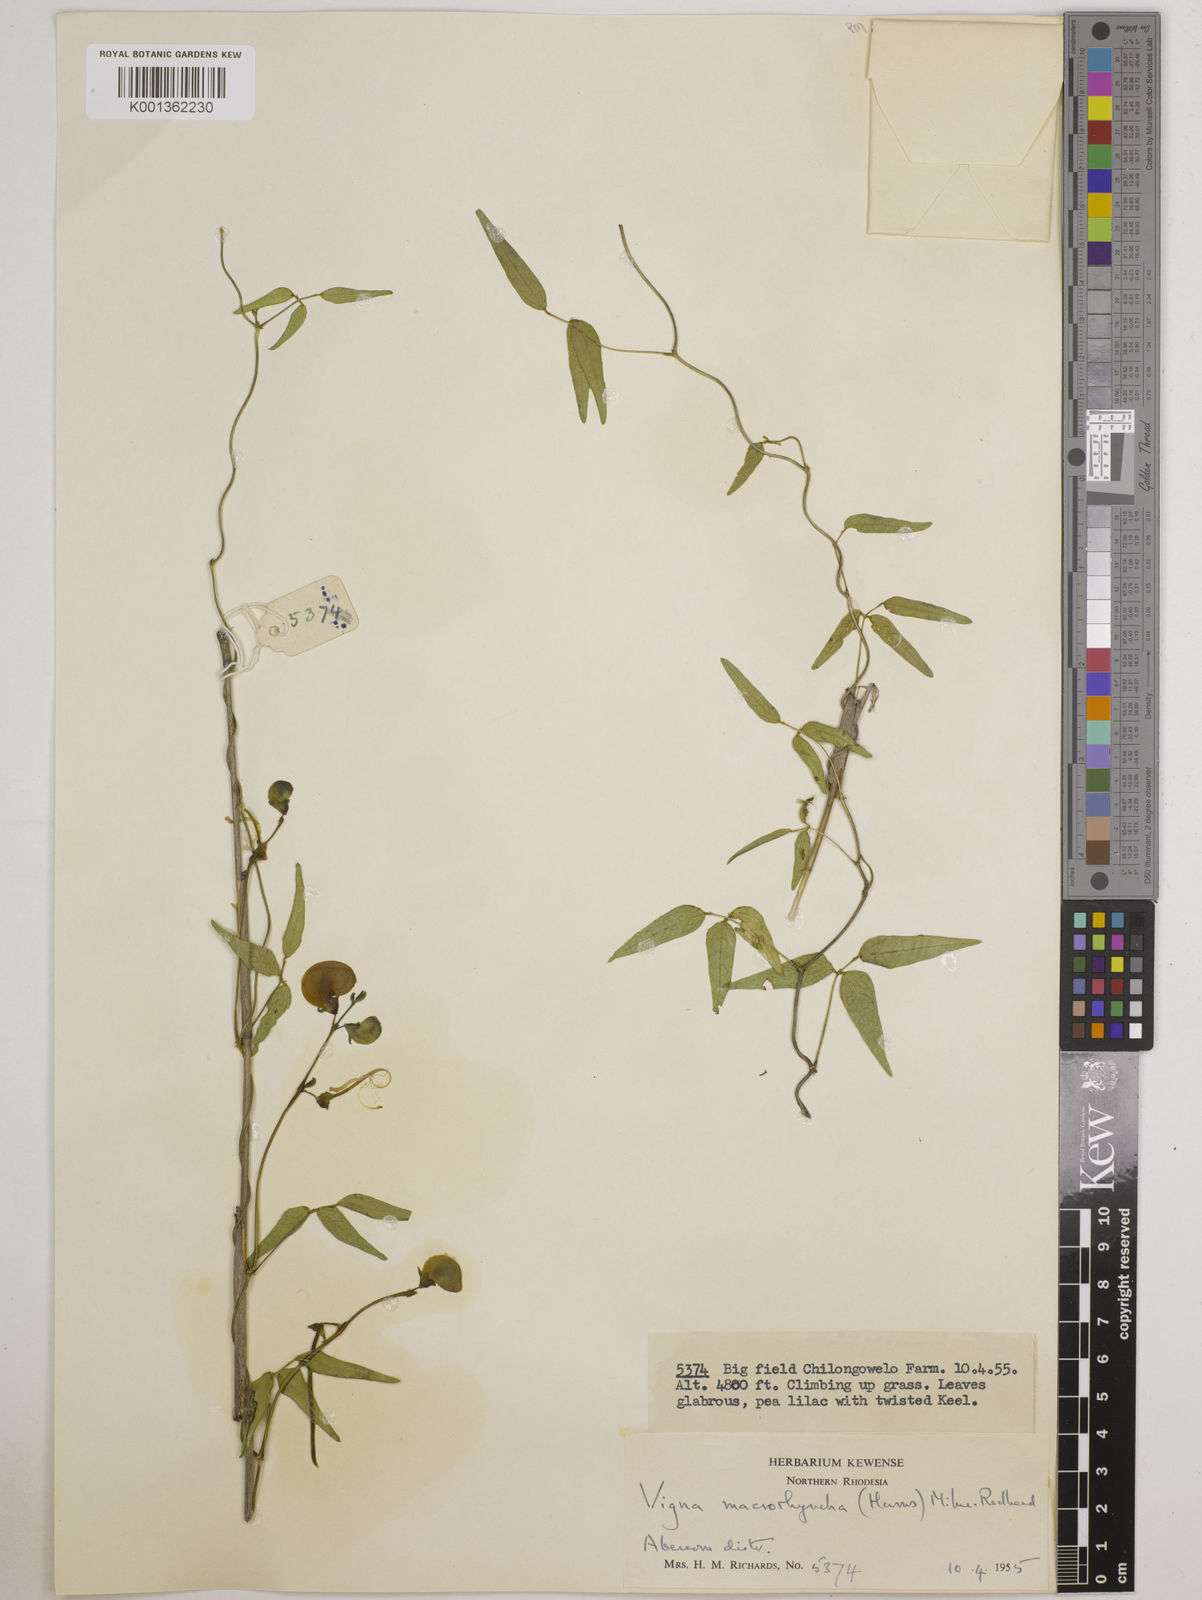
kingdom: Plantae
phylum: Tracheophyta
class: Magnoliopsida
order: Fabales
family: Fabaceae
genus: Wajira
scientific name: Wajira grahamiana
